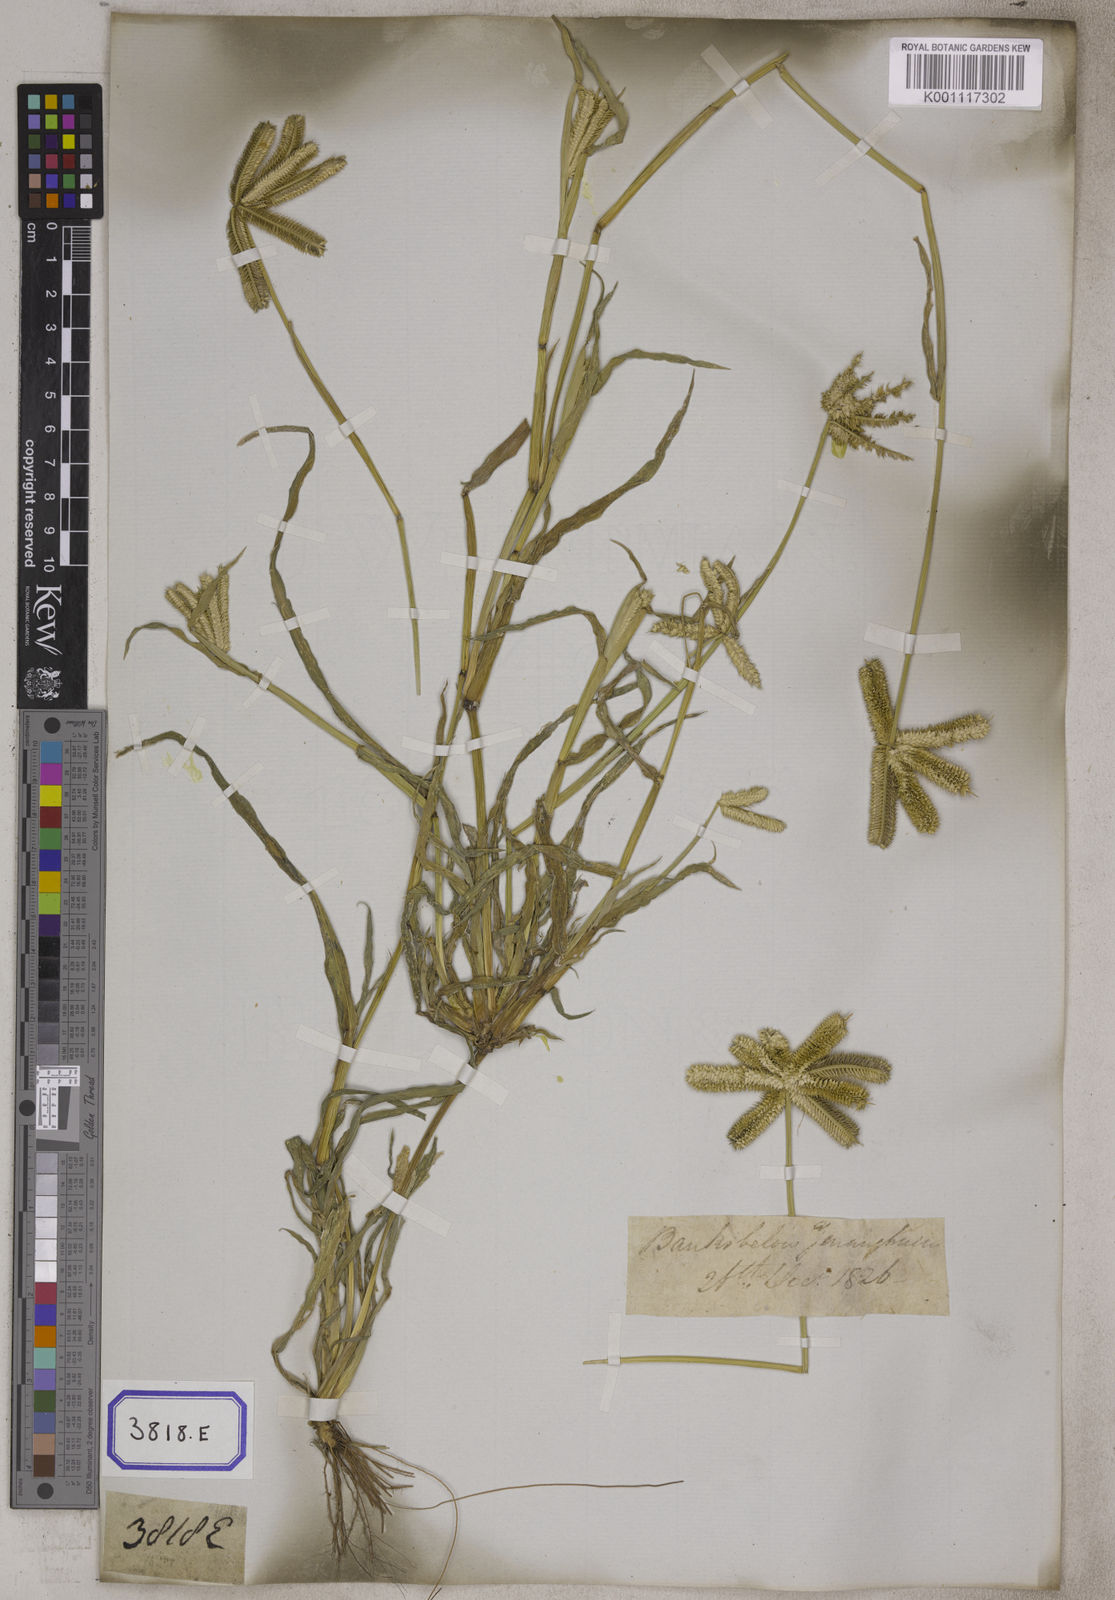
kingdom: Plantae
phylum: Tracheophyta
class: Liliopsida
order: Poales
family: Poaceae
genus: Eleusine
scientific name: Eleusine
